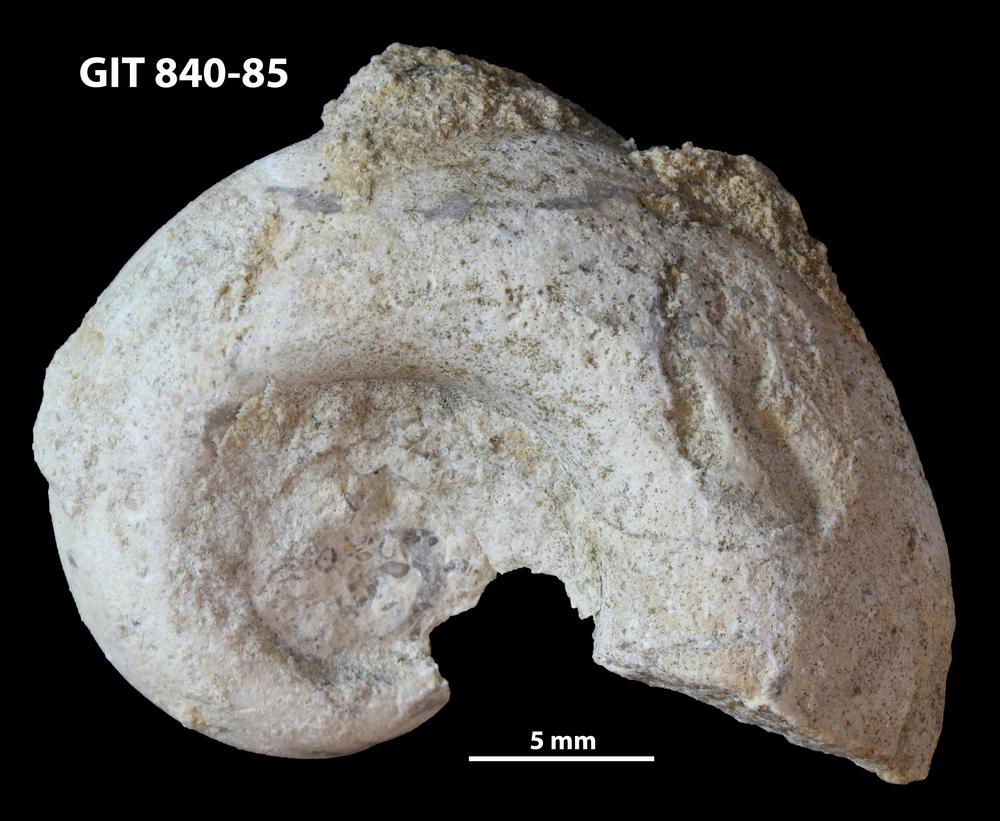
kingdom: Animalia
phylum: Mollusca
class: Gastropoda
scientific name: Gastropoda
